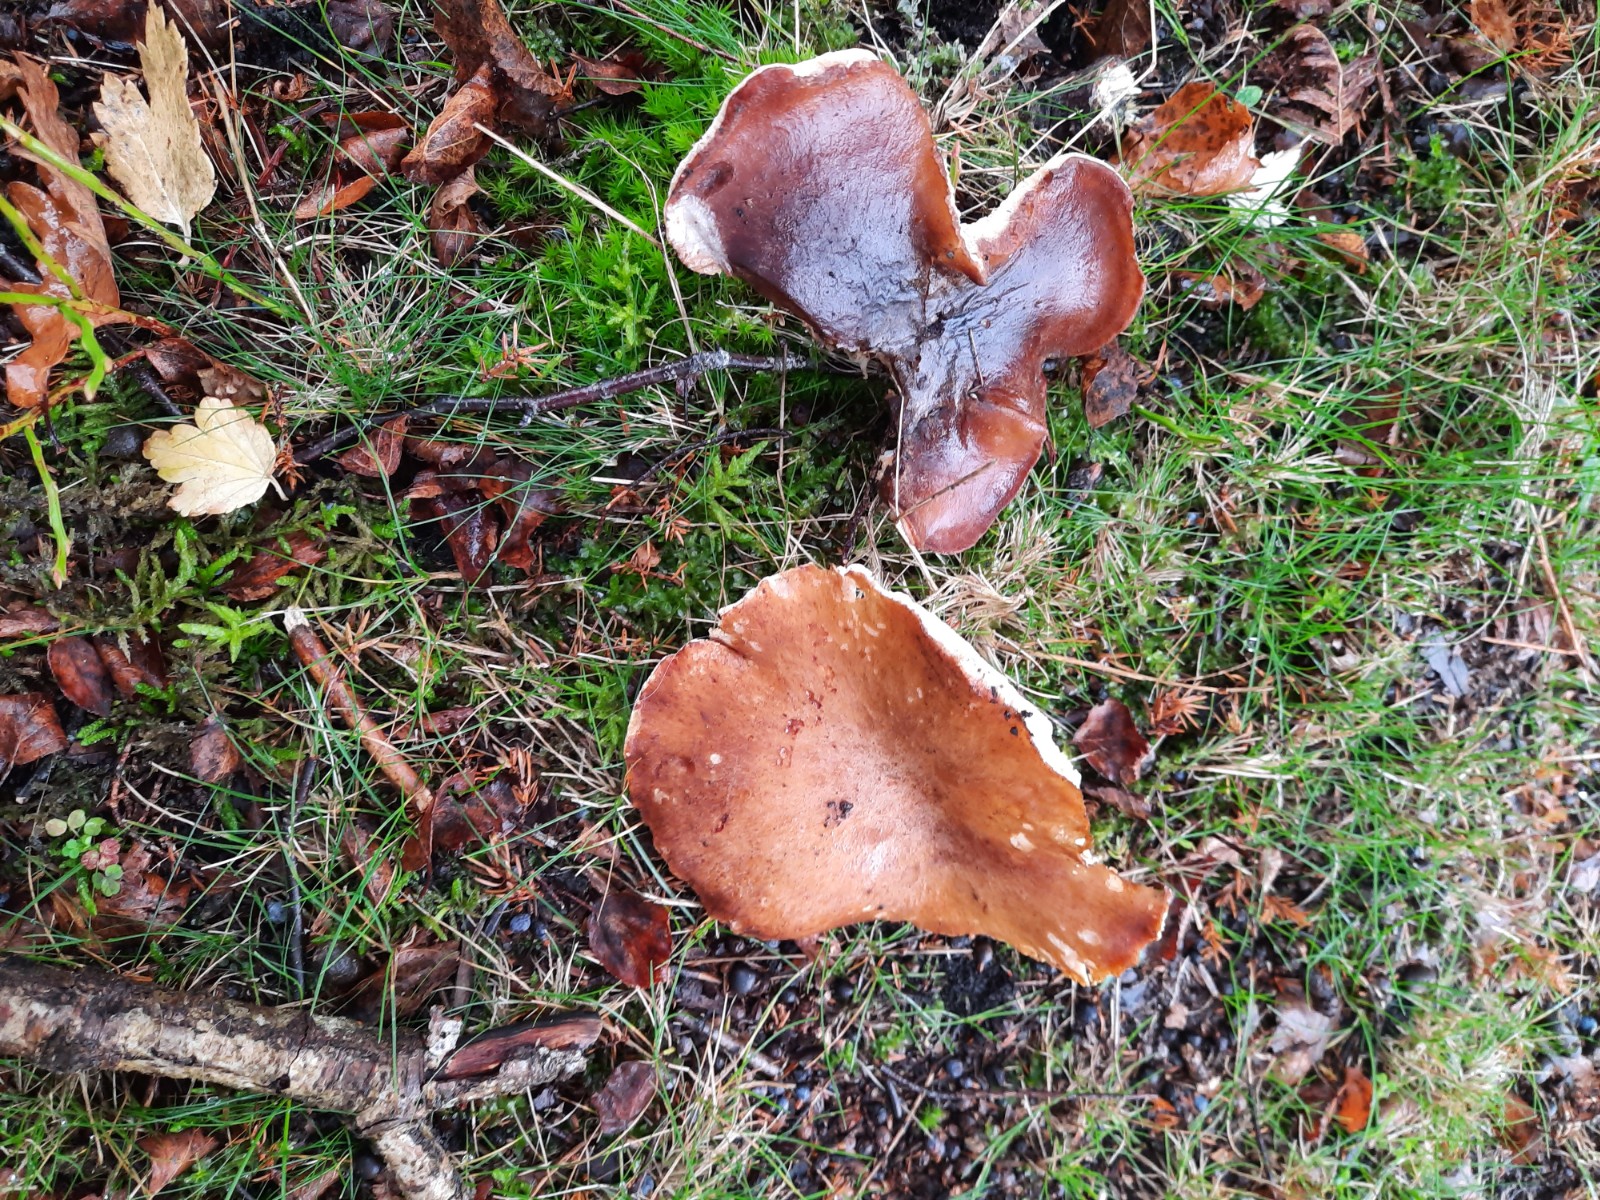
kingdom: Fungi
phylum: Basidiomycota
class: Agaricomycetes
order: Polyporales
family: Polyporaceae
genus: Picipes
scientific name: Picipes badius
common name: kastaniebrun stilkporesvamp
